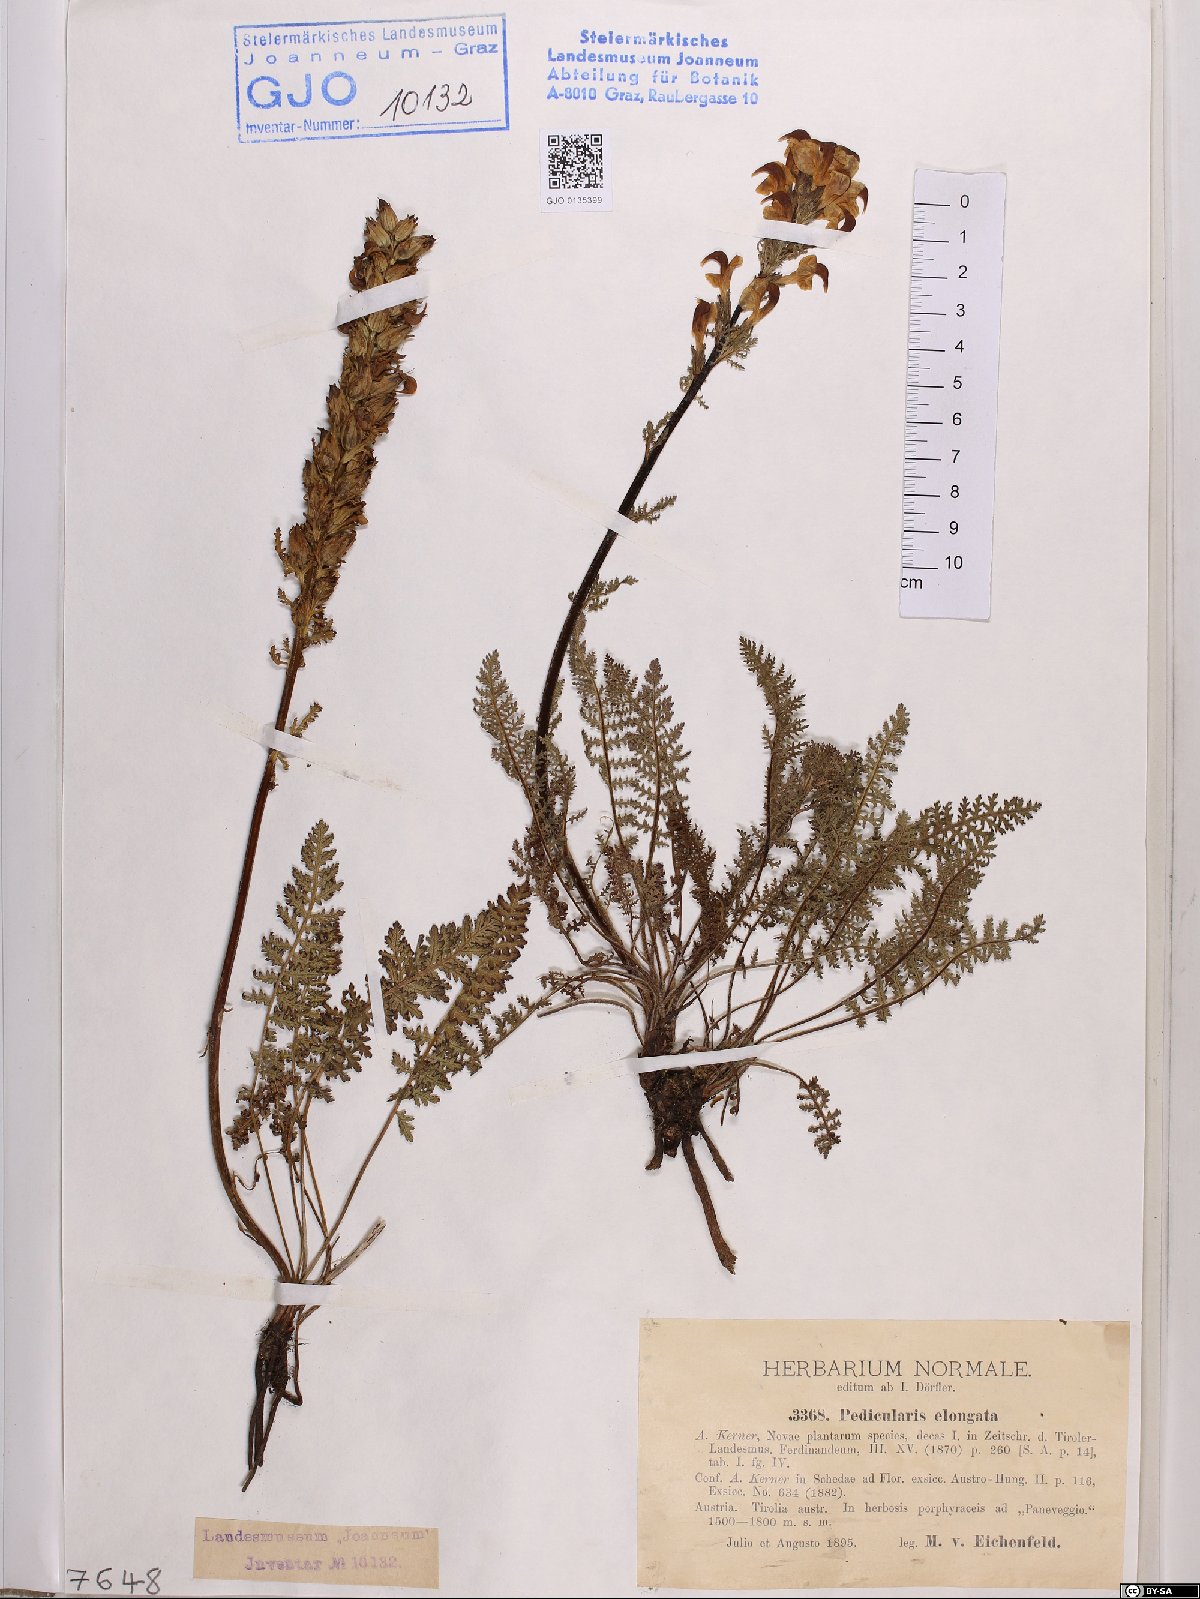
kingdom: Plantae
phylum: Tracheophyta
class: Magnoliopsida
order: Lamiales
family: Orobanchaceae
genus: Pedicularis
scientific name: Pedicularis elongata
